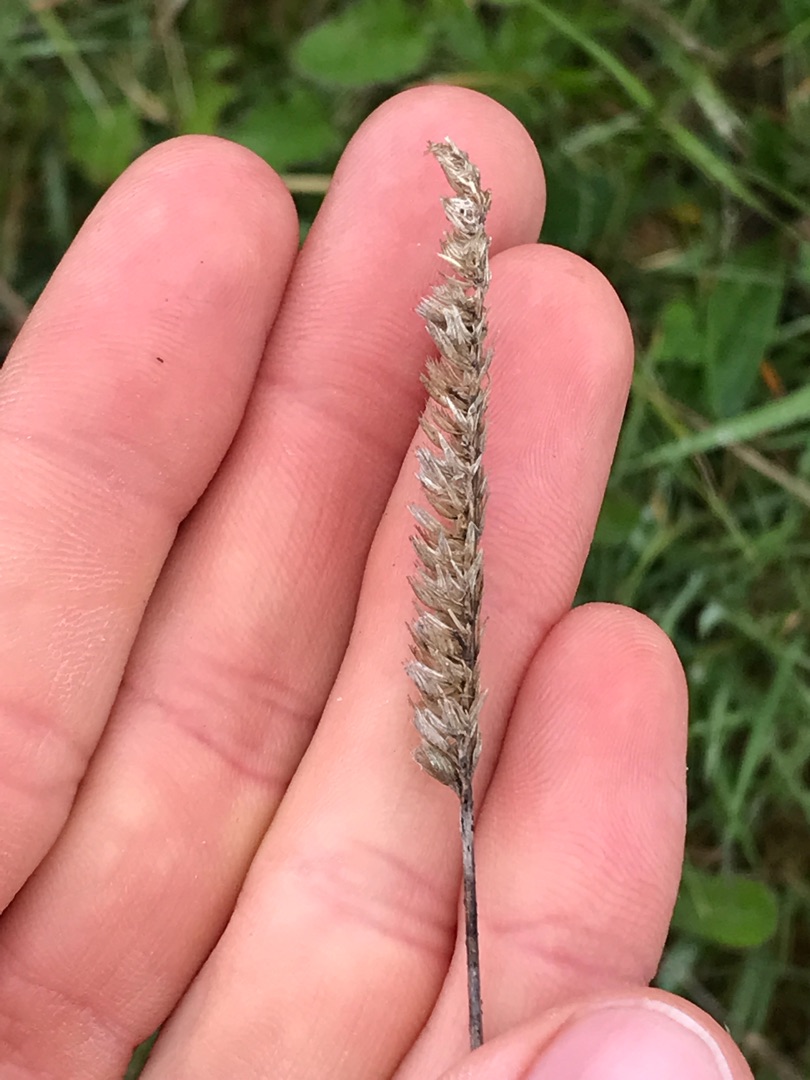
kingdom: Plantae
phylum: Tracheophyta
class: Liliopsida
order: Poales
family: Poaceae
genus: Cynosurus
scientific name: Cynosurus cristatus
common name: Kamgræs
